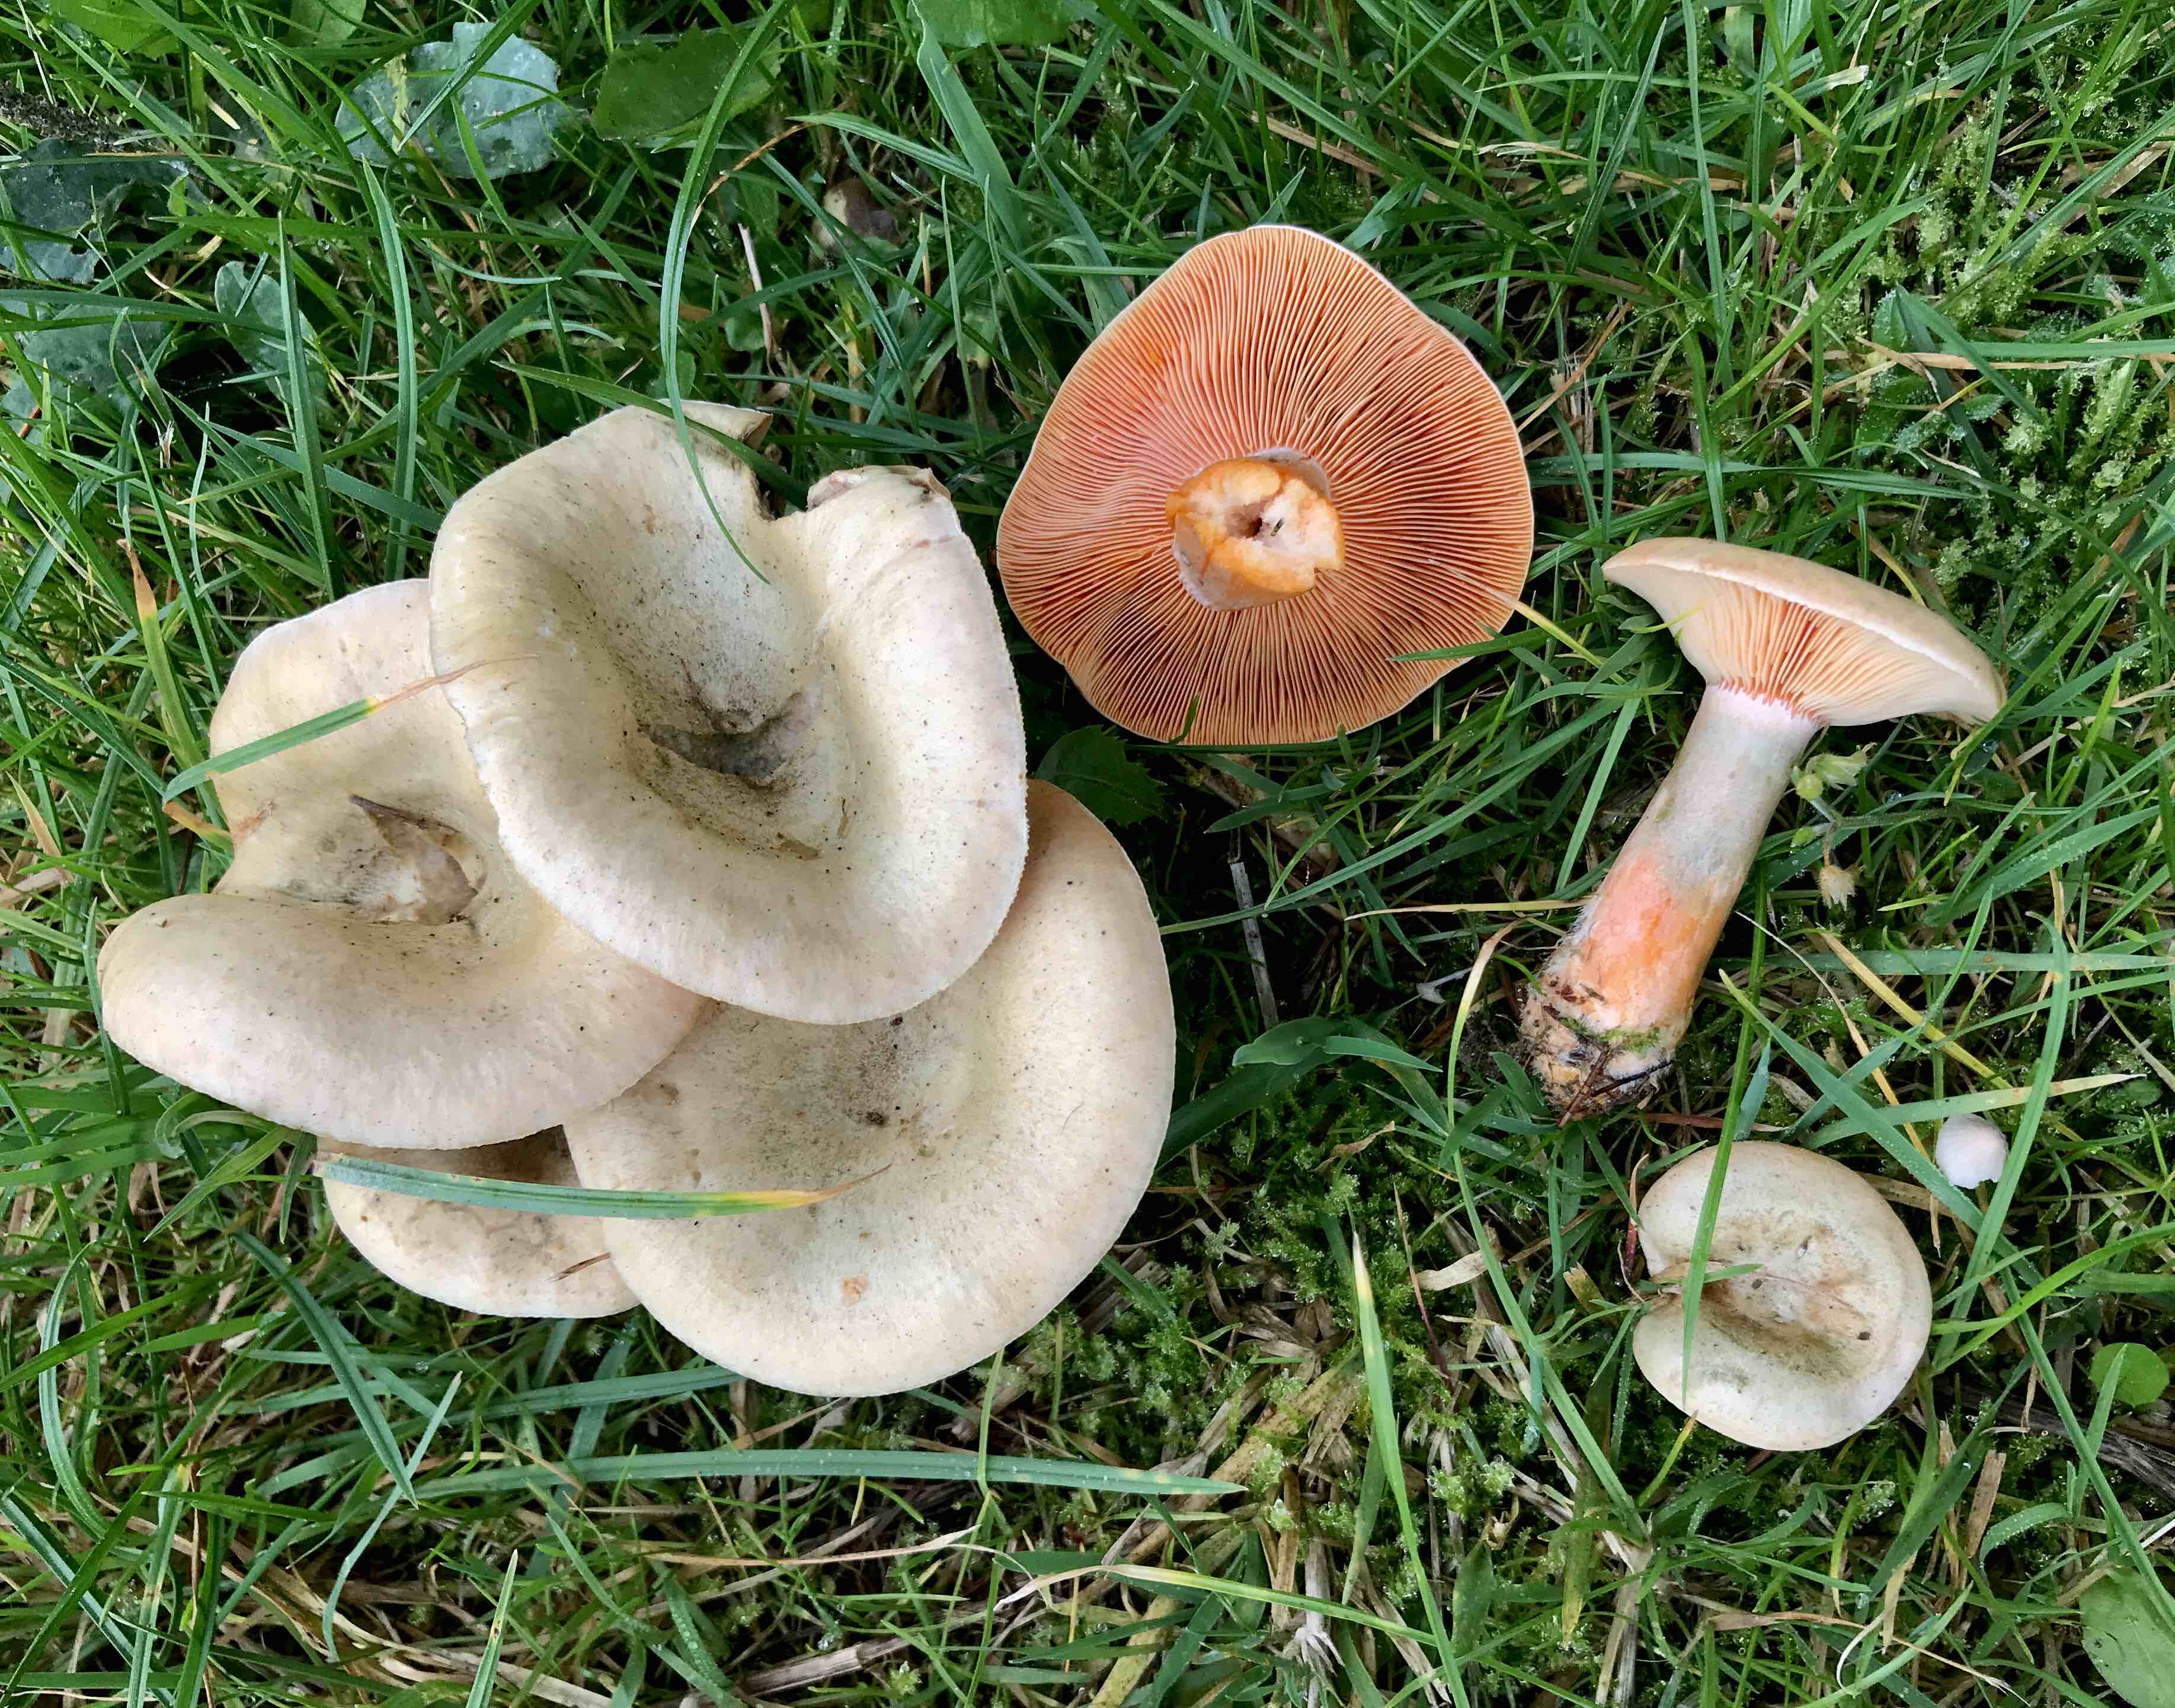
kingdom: Fungi
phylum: Basidiomycota
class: Agaricomycetes
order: Russulales
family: Russulaceae
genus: Lactarius
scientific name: Lactarius deterrimus
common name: gran-mælkehat
